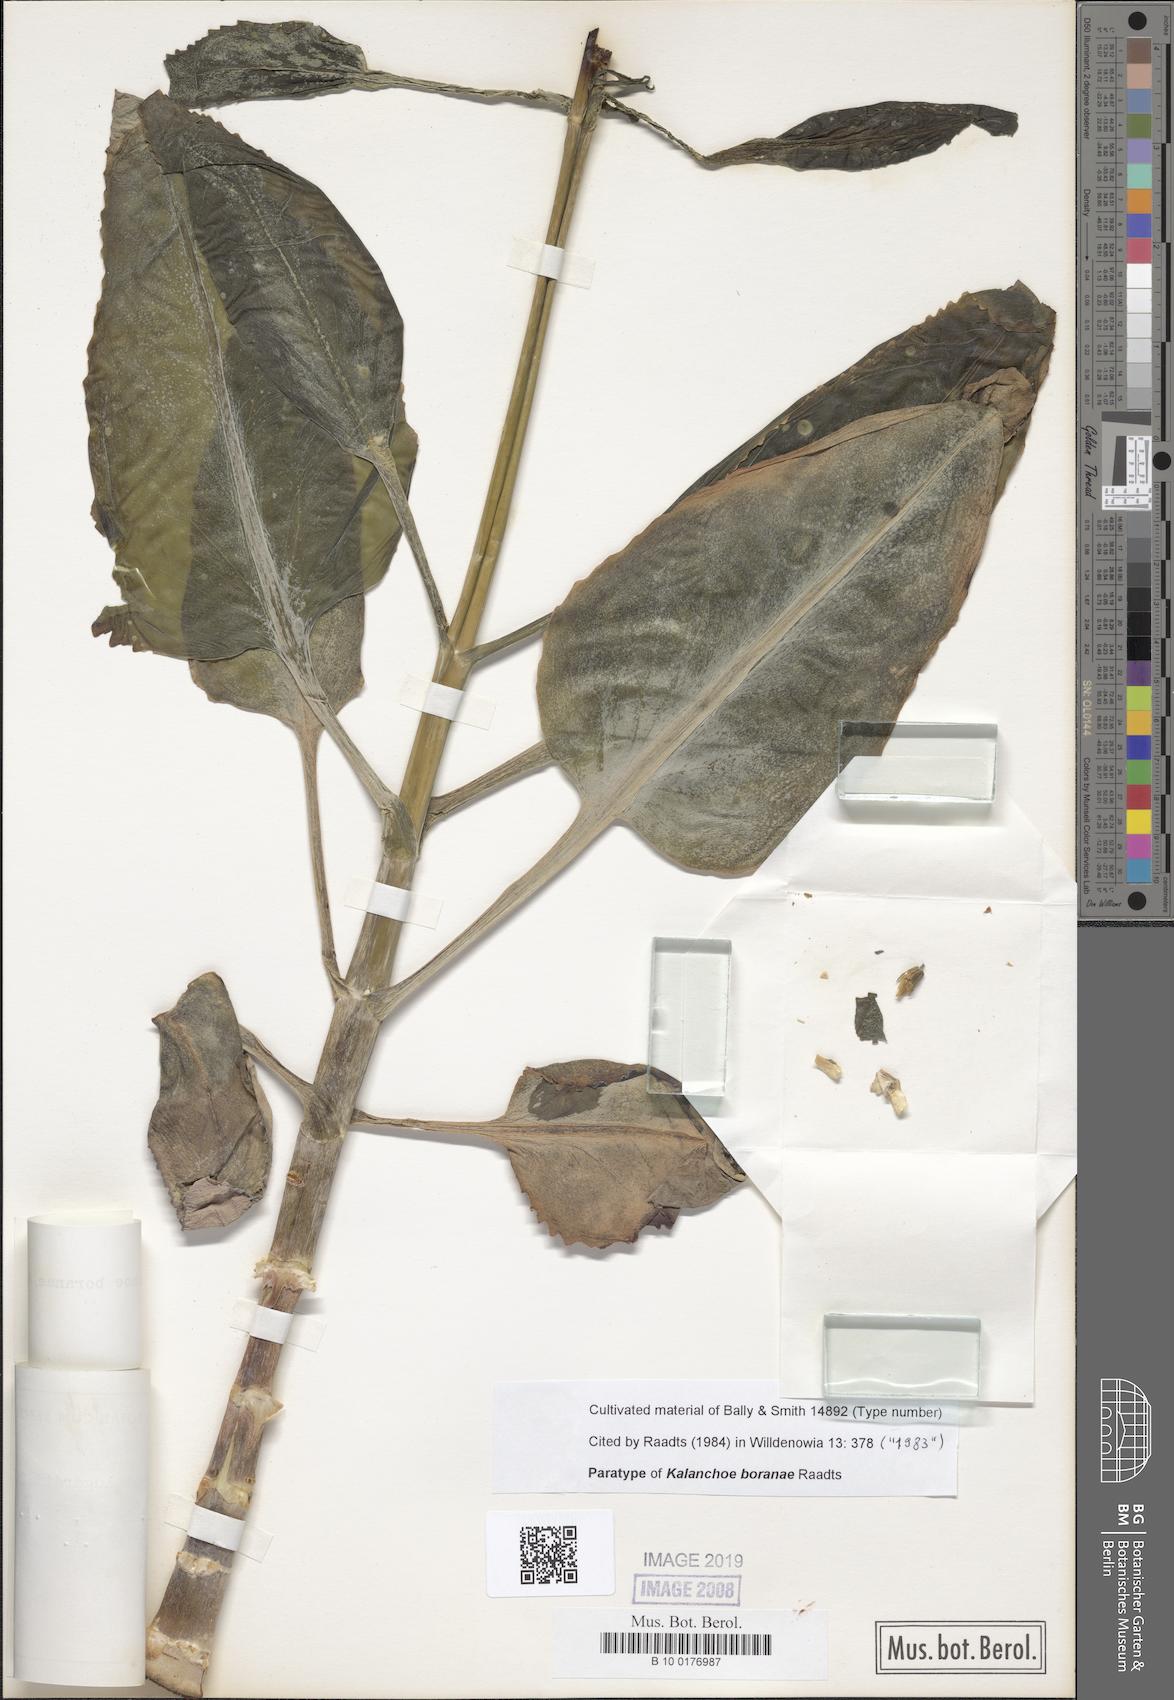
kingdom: Plantae
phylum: Tracheophyta
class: Magnoliopsida
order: Saxifragales
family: Crassulaceae
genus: Kalanchoe
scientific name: Kalanchoe boranae
